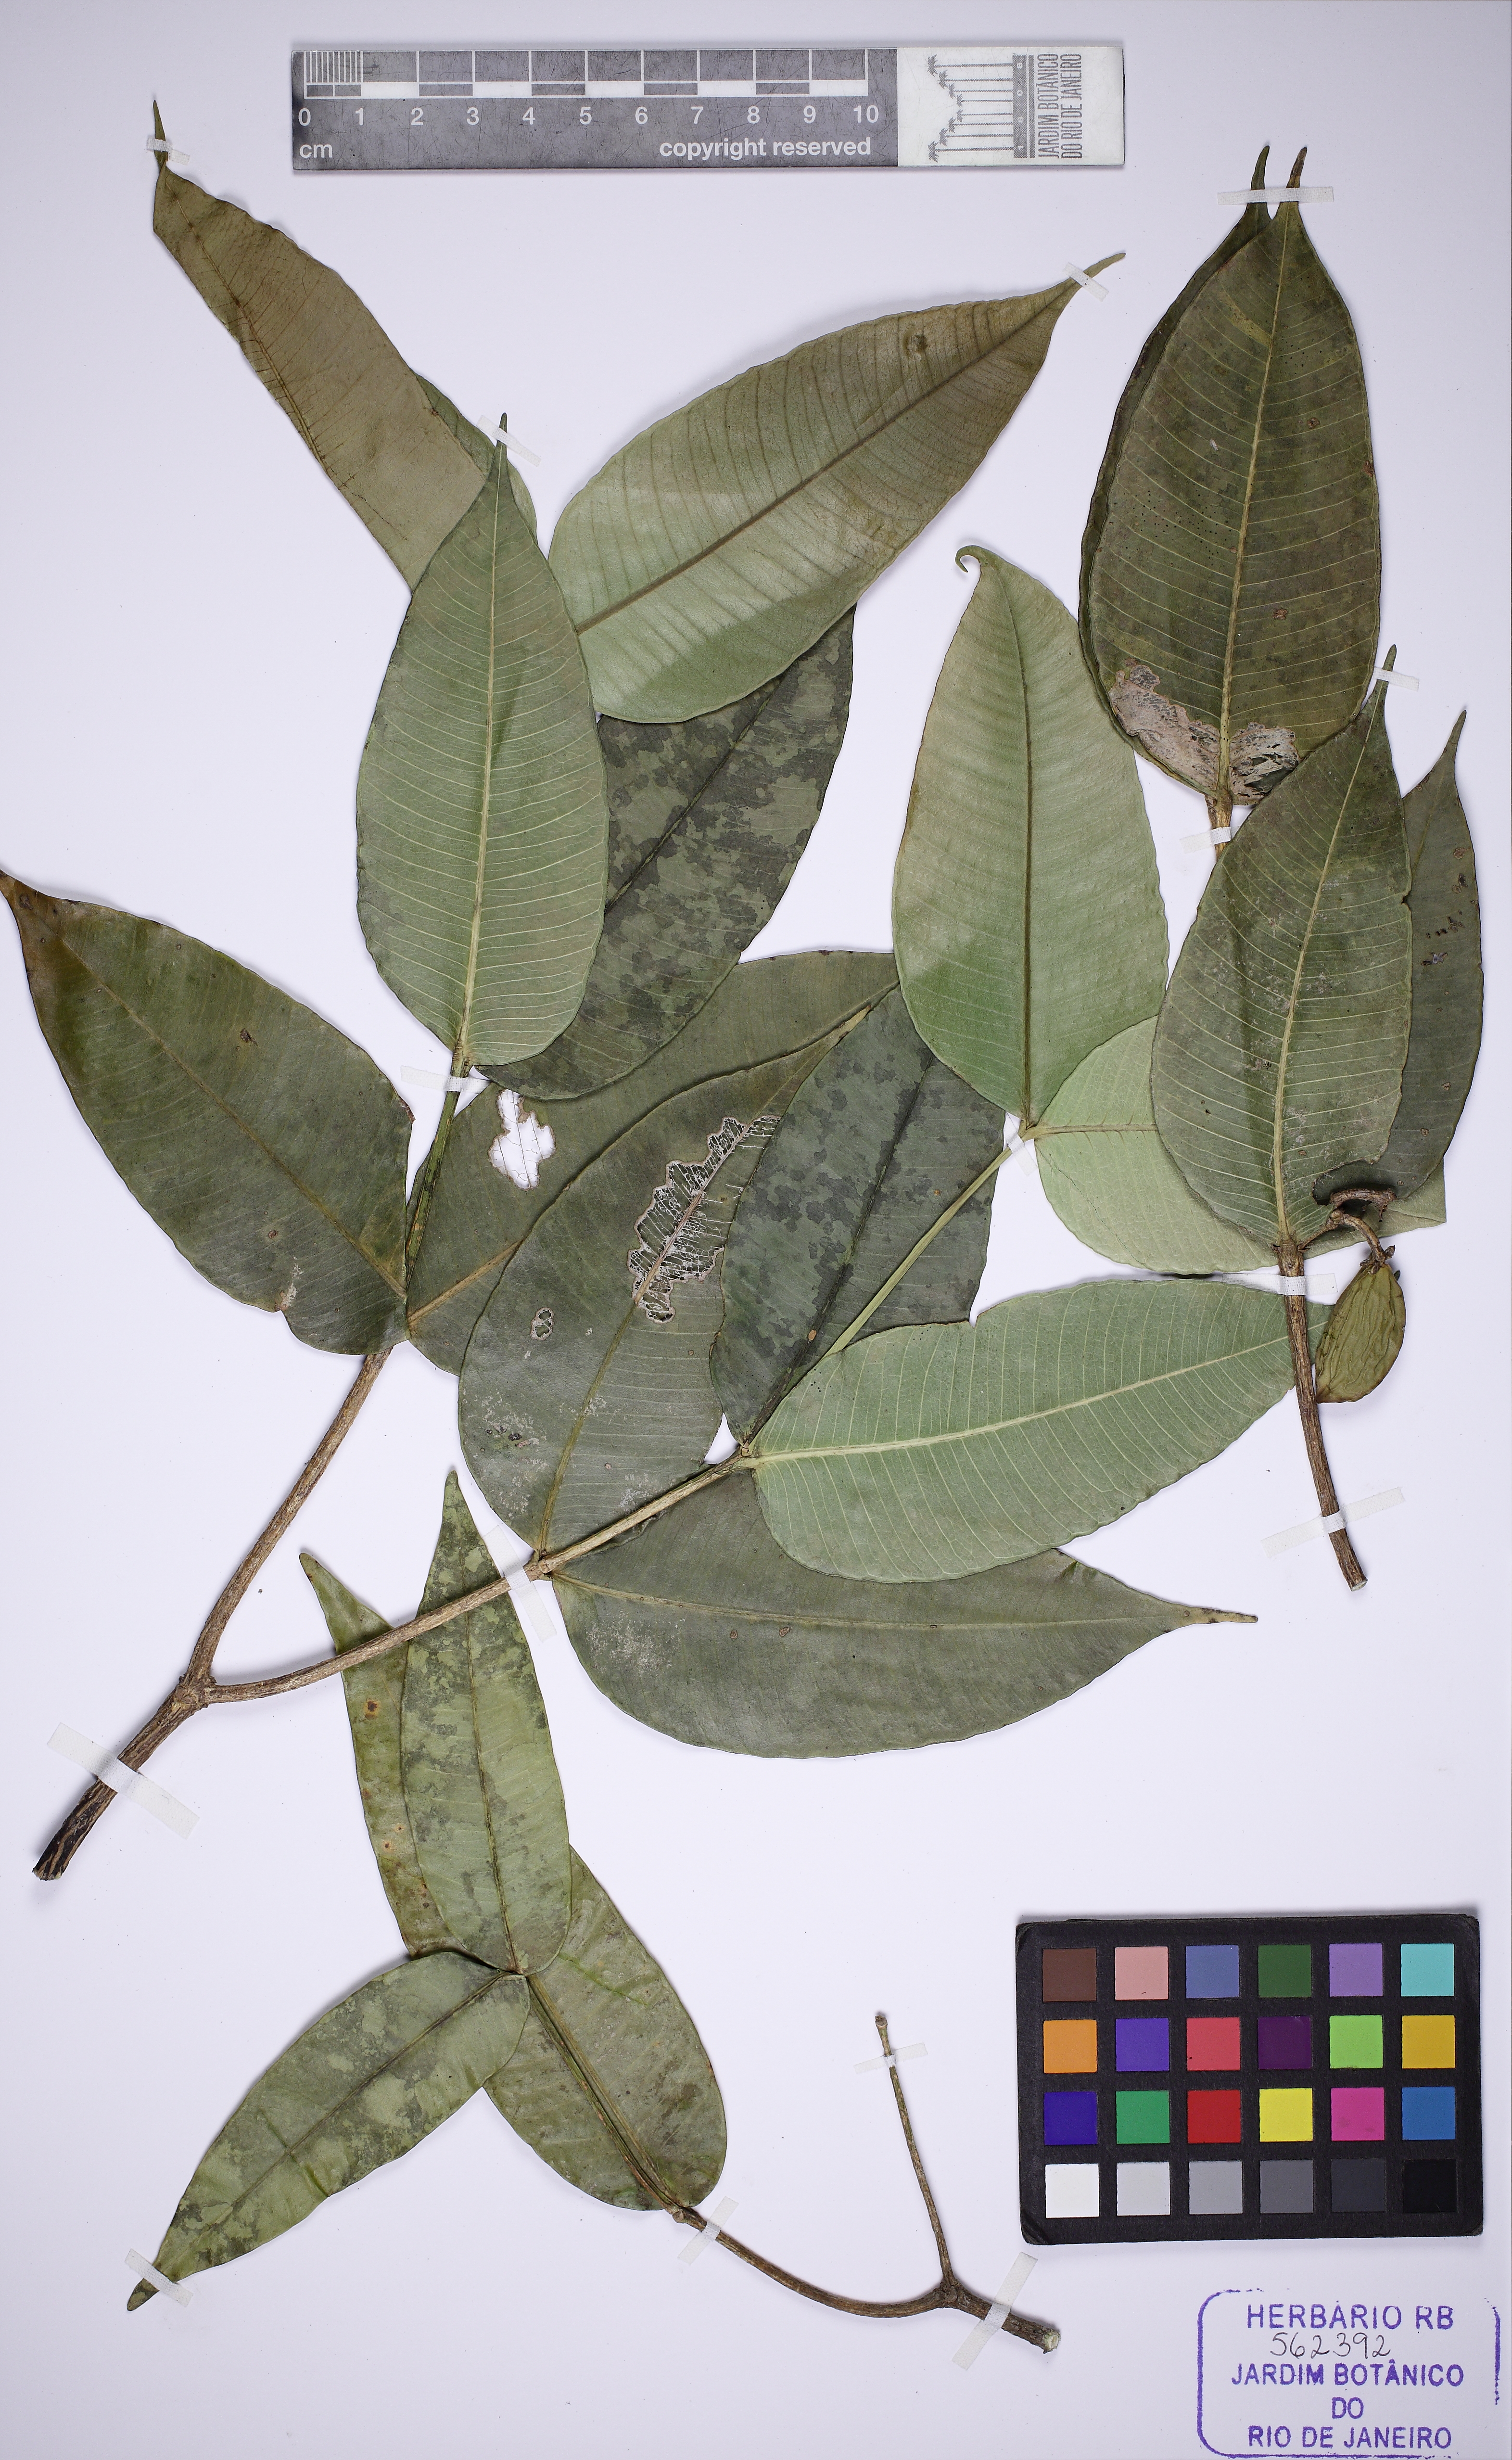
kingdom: Plantae
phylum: Tracheophyta
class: Magnoliopsida
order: Gentianales
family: Apocynaceae
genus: Tabernaemontana
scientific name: Tabernaemontana rupicola
